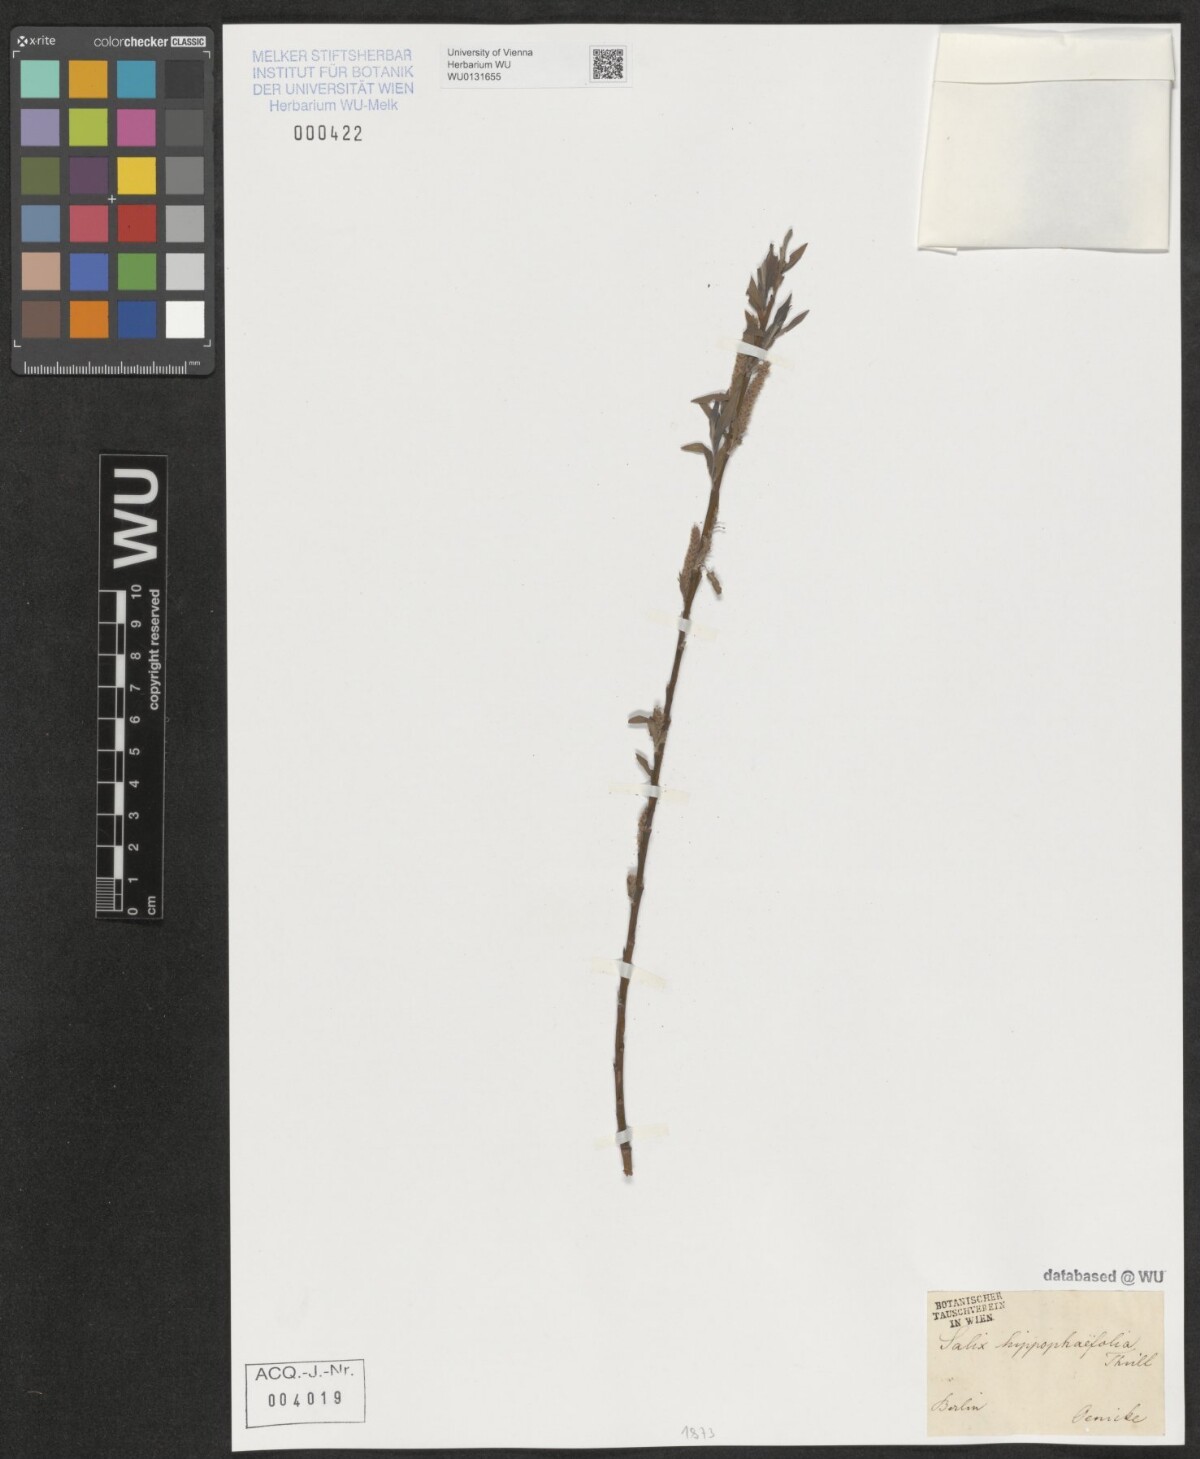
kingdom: Plantae
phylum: Tracheophyta
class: Magnoliopsida
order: Malpighiales
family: Salicaceae
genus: Salix
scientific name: Salix mollissima
